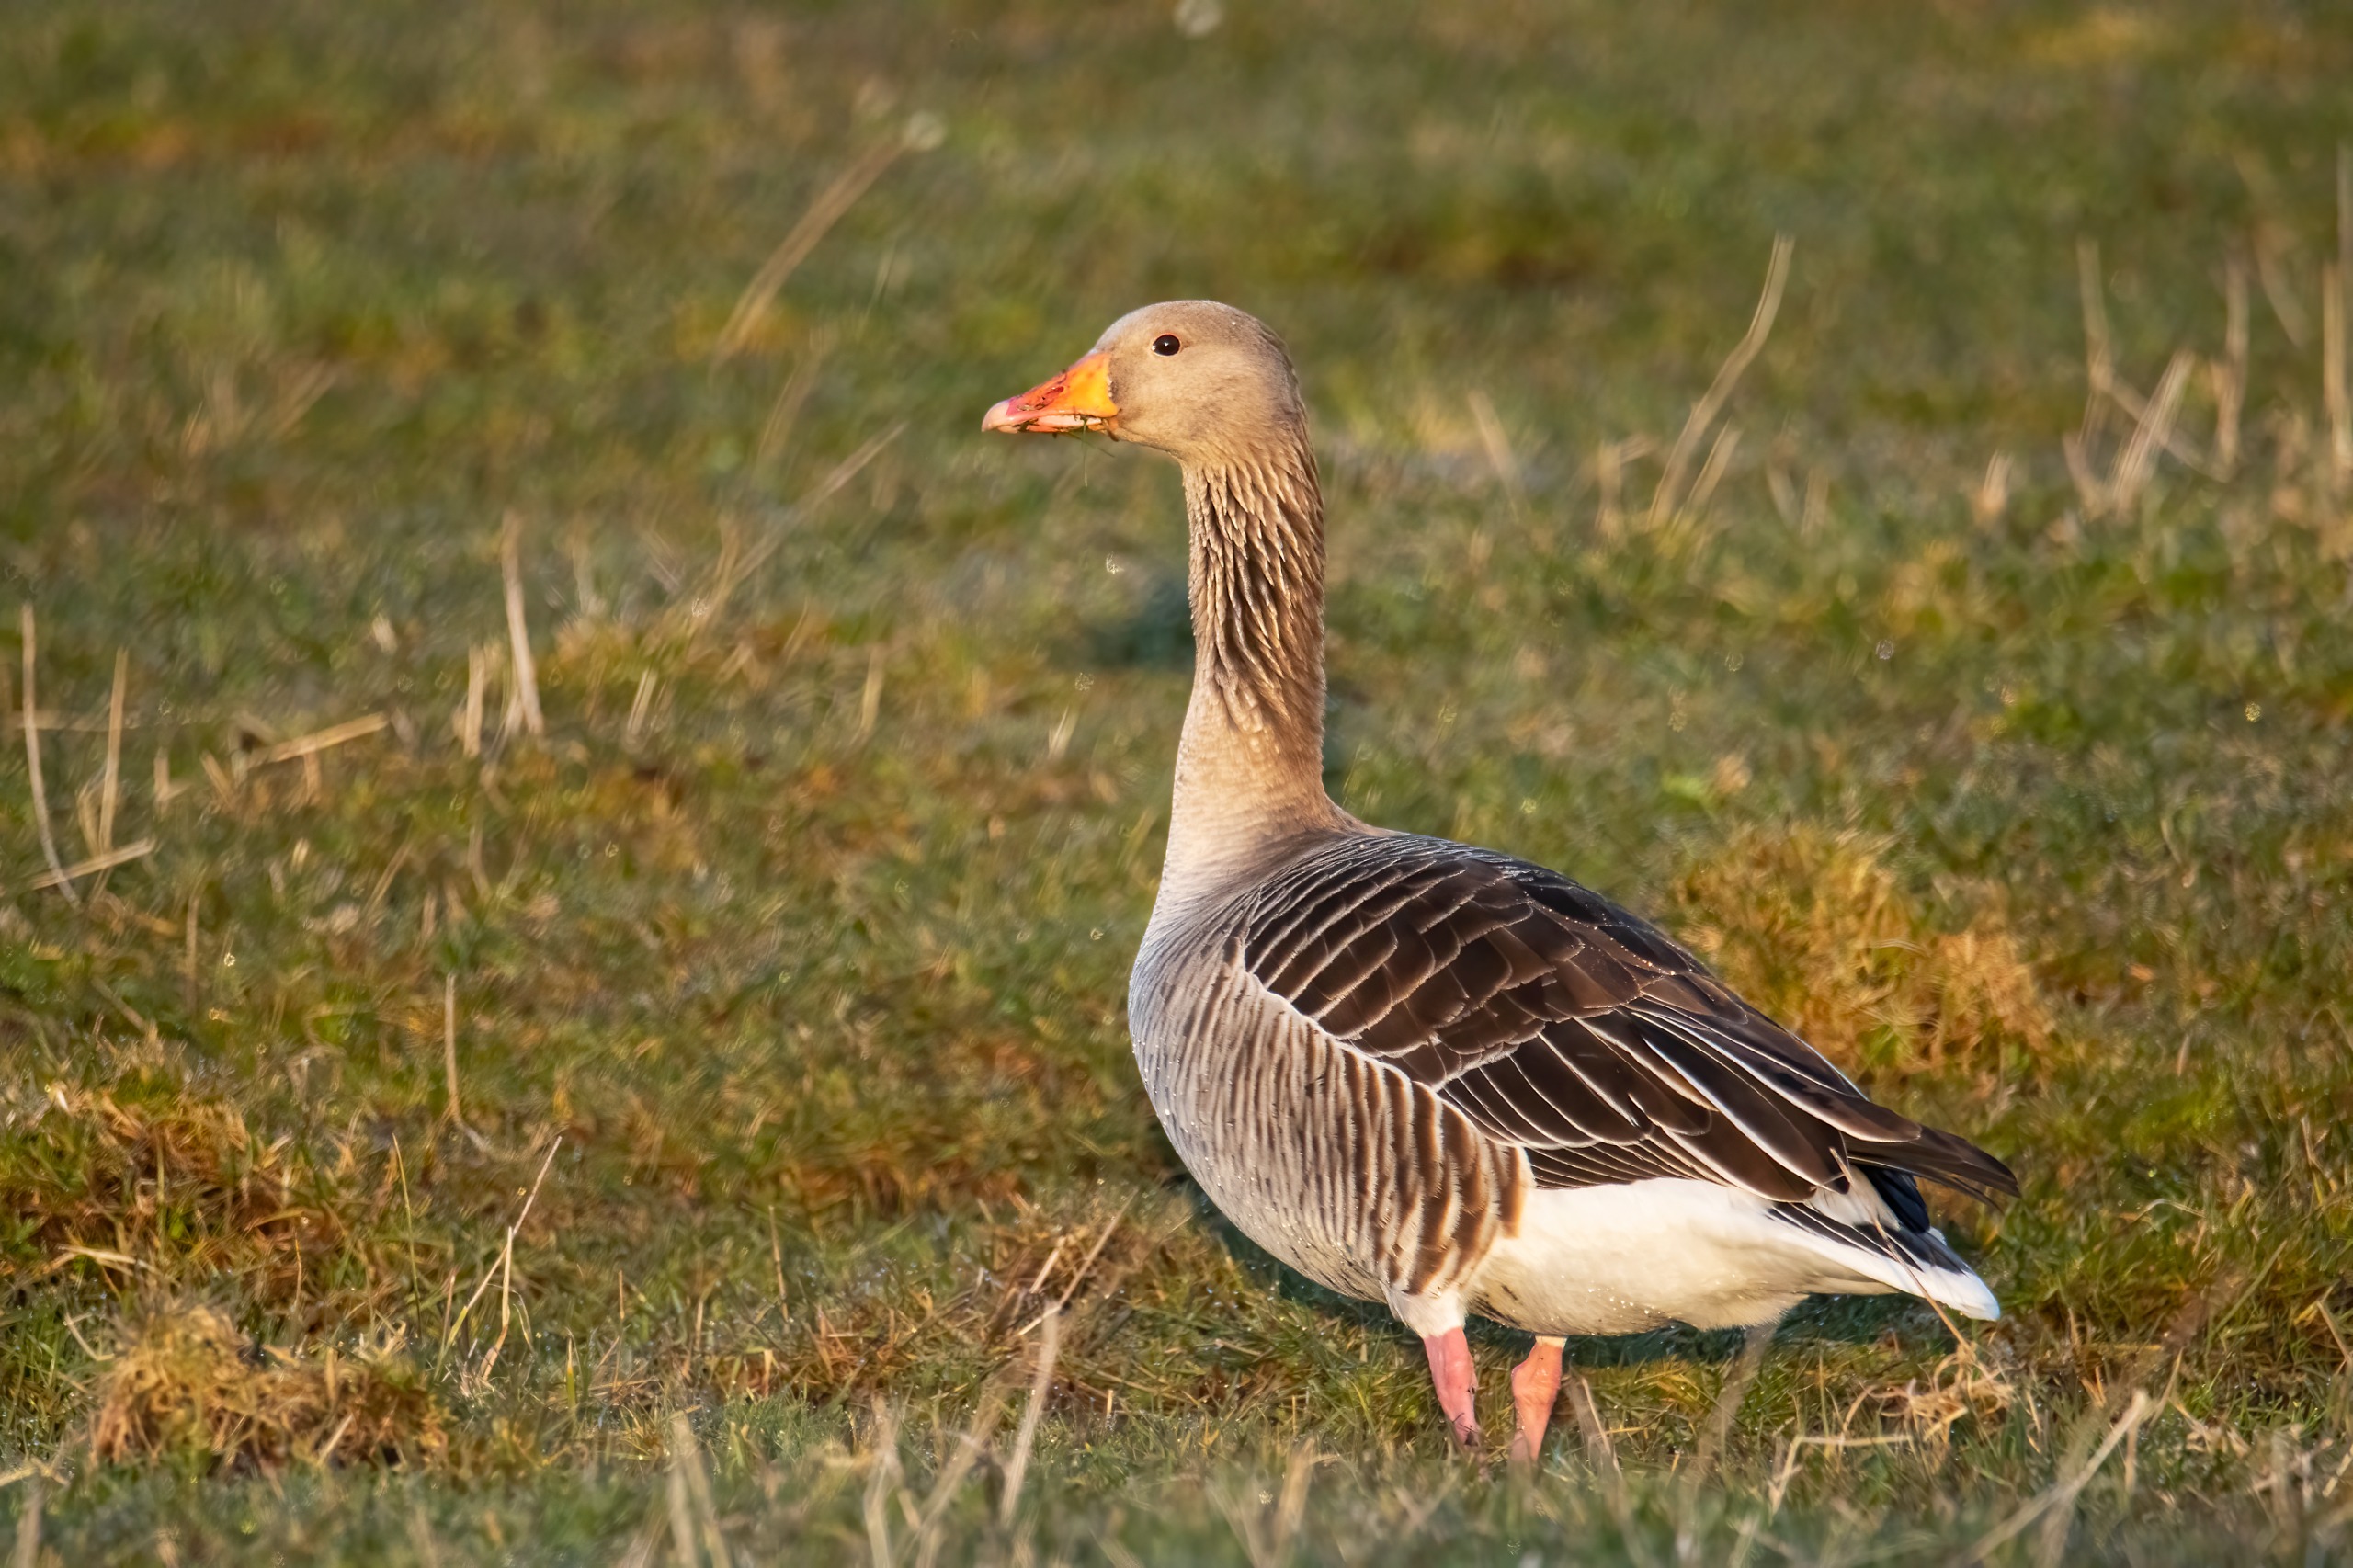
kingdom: Animalia
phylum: Chordata
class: Aves
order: Anseriformes
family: Anatidae
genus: Anser
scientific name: Anser anser
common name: Grågås
